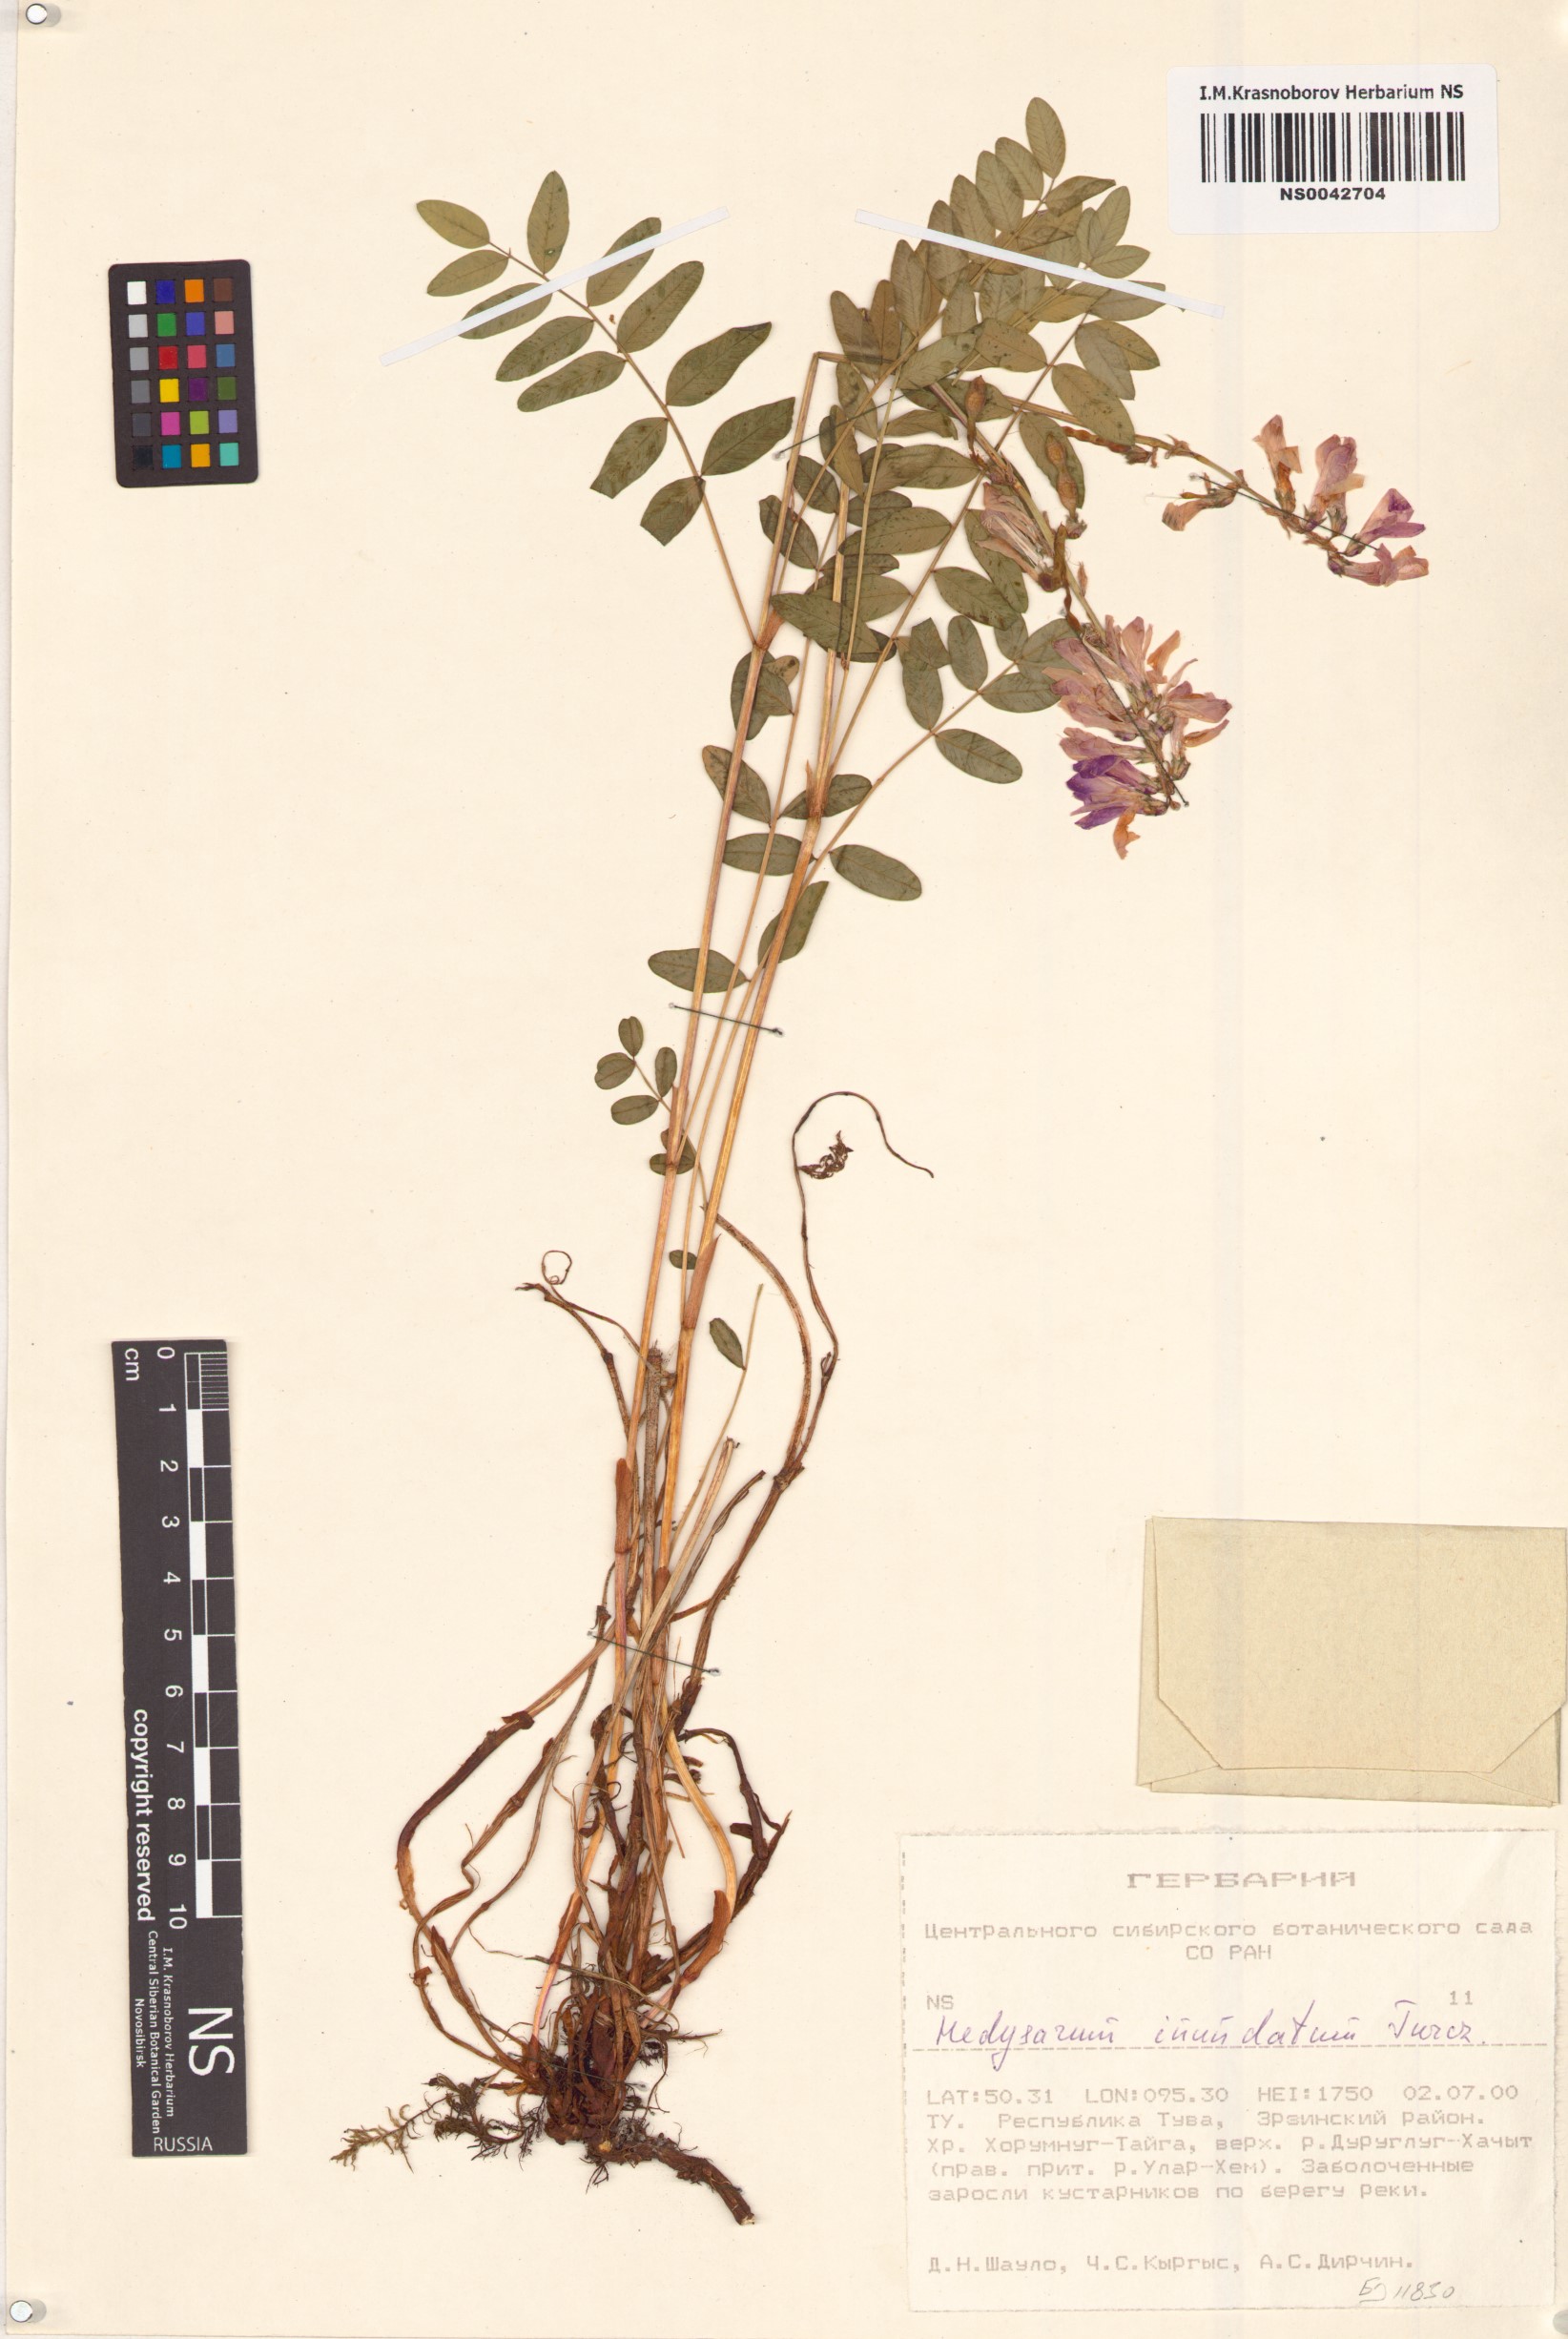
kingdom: Plantae
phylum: Tracheophyta
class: Magnoliopsida
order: Fabales
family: Fabaceae
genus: Hedysarum
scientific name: Hedysarum inundatum
